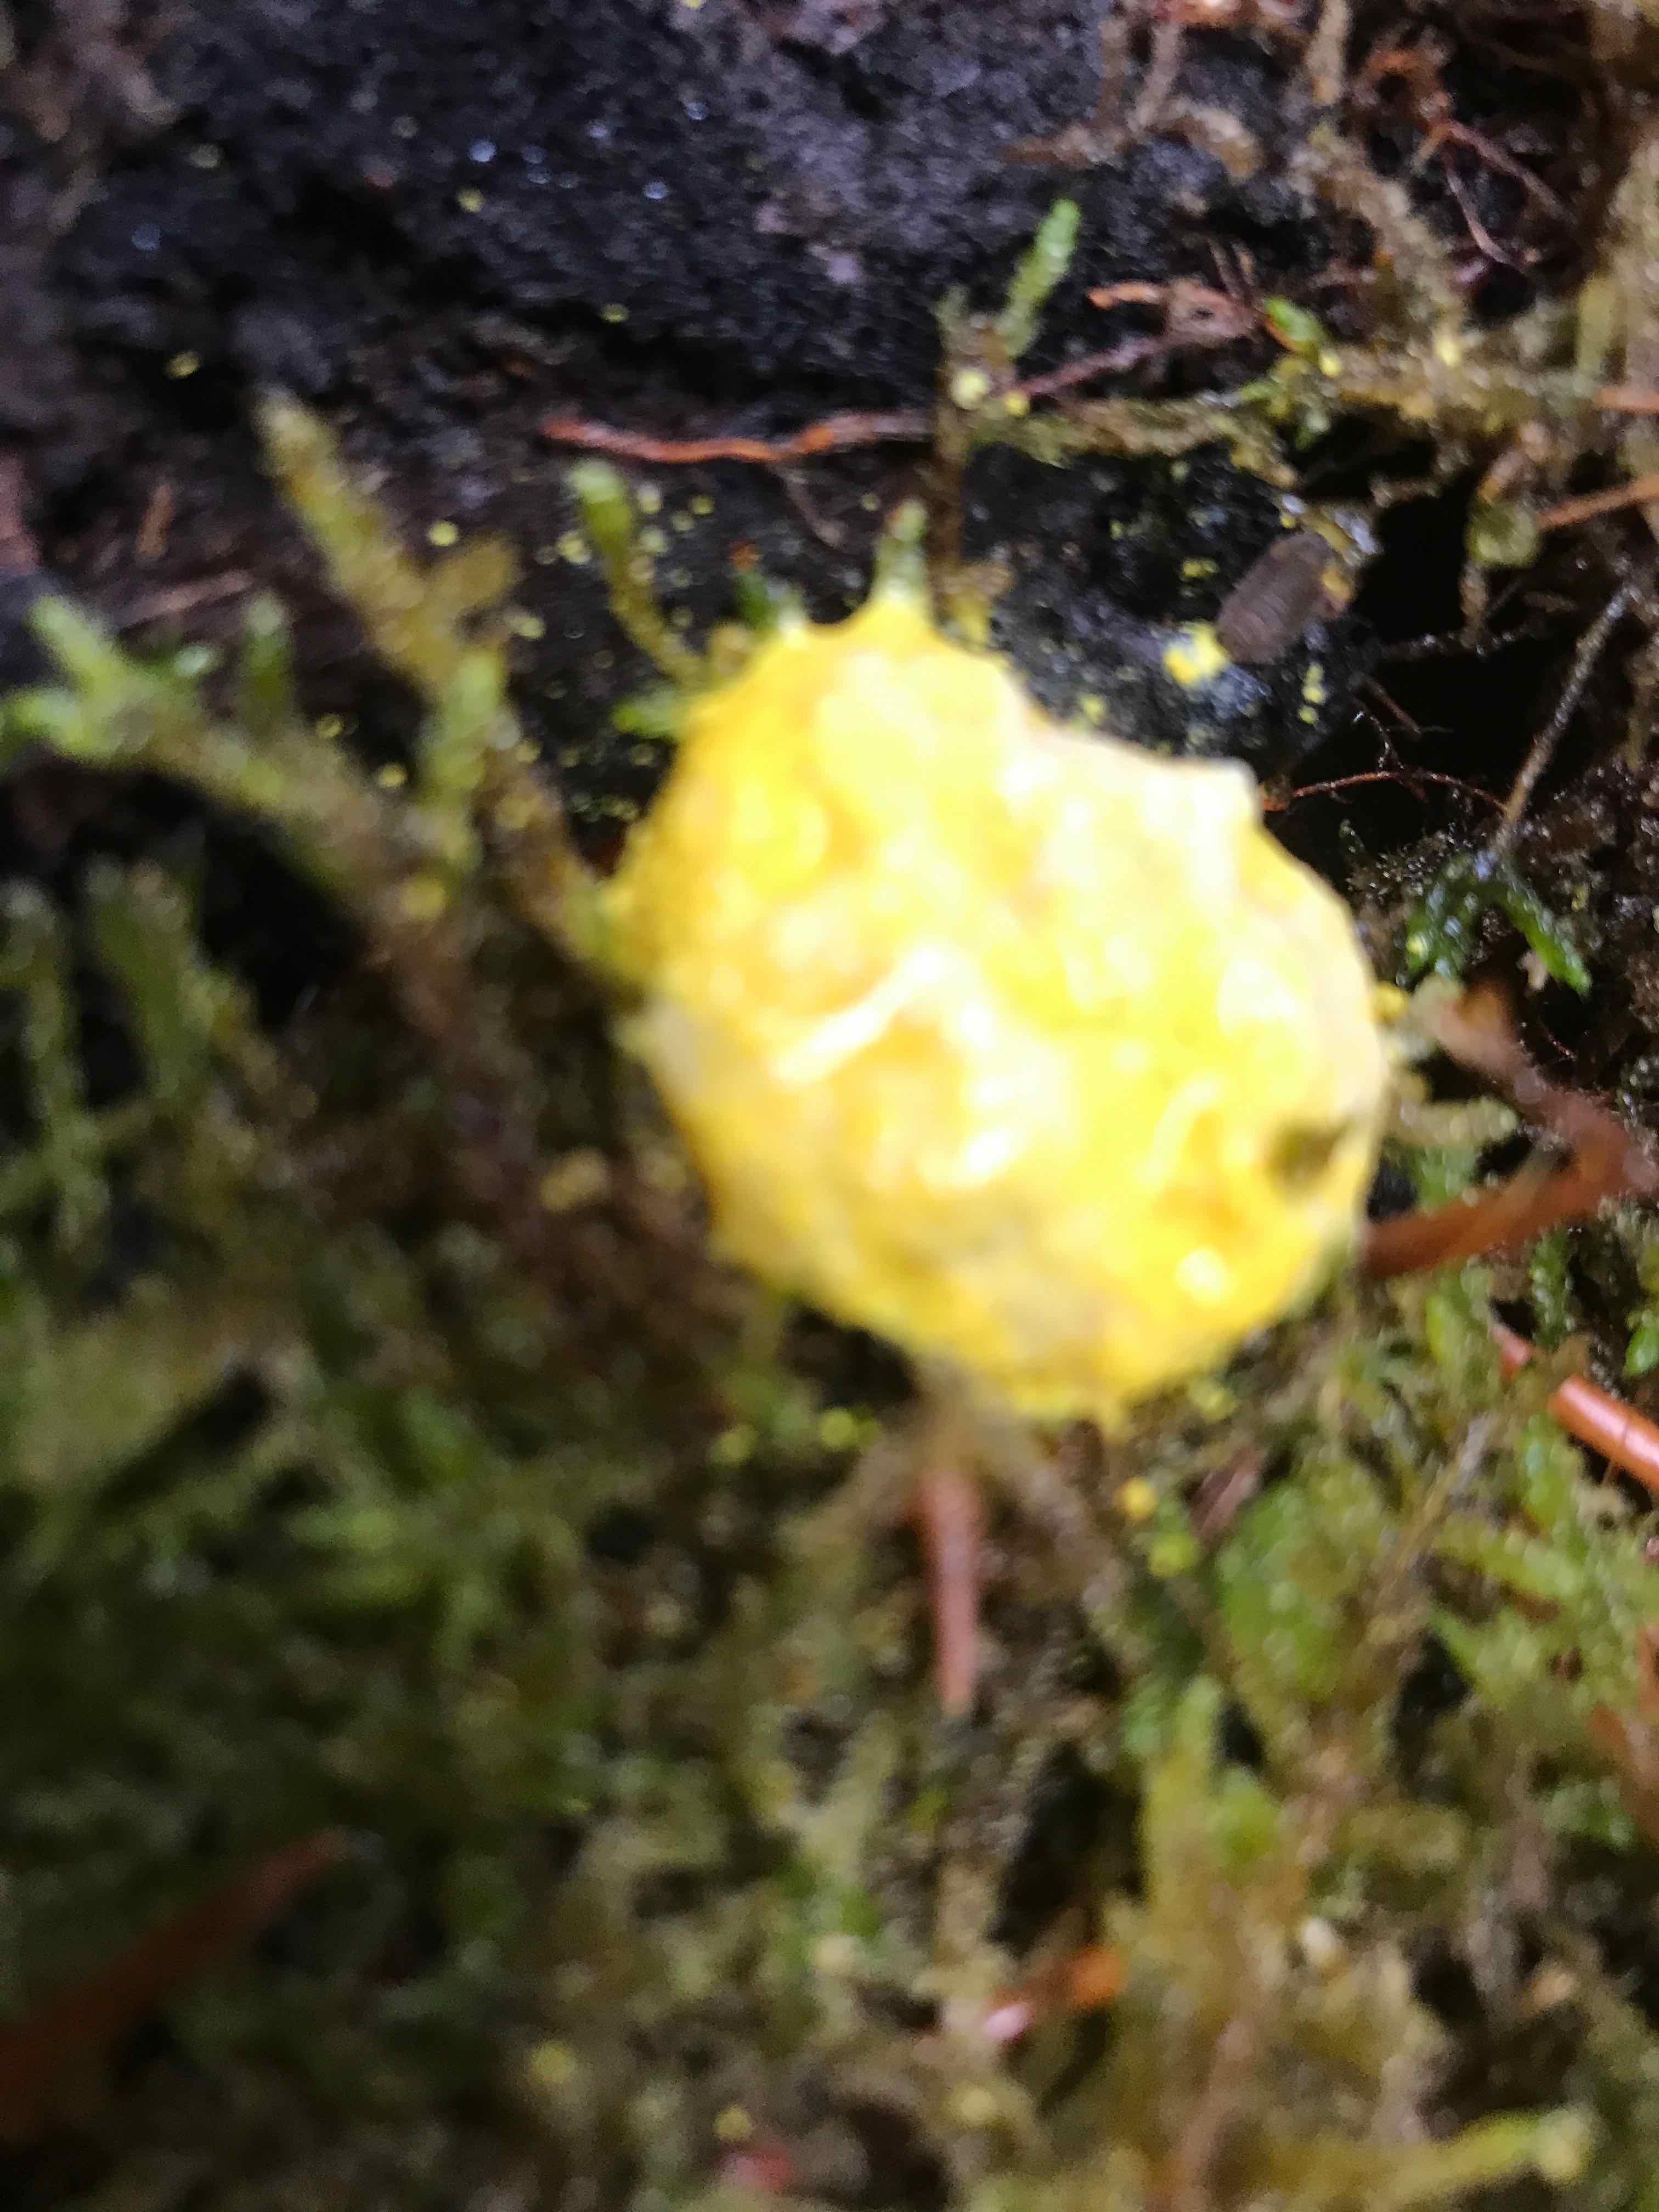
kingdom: Protozoa
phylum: Mycetozoa
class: Myxomycetes
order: Physarales
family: Physaraceae
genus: Fuligo
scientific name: Fuligo septica
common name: gul troldsmør
